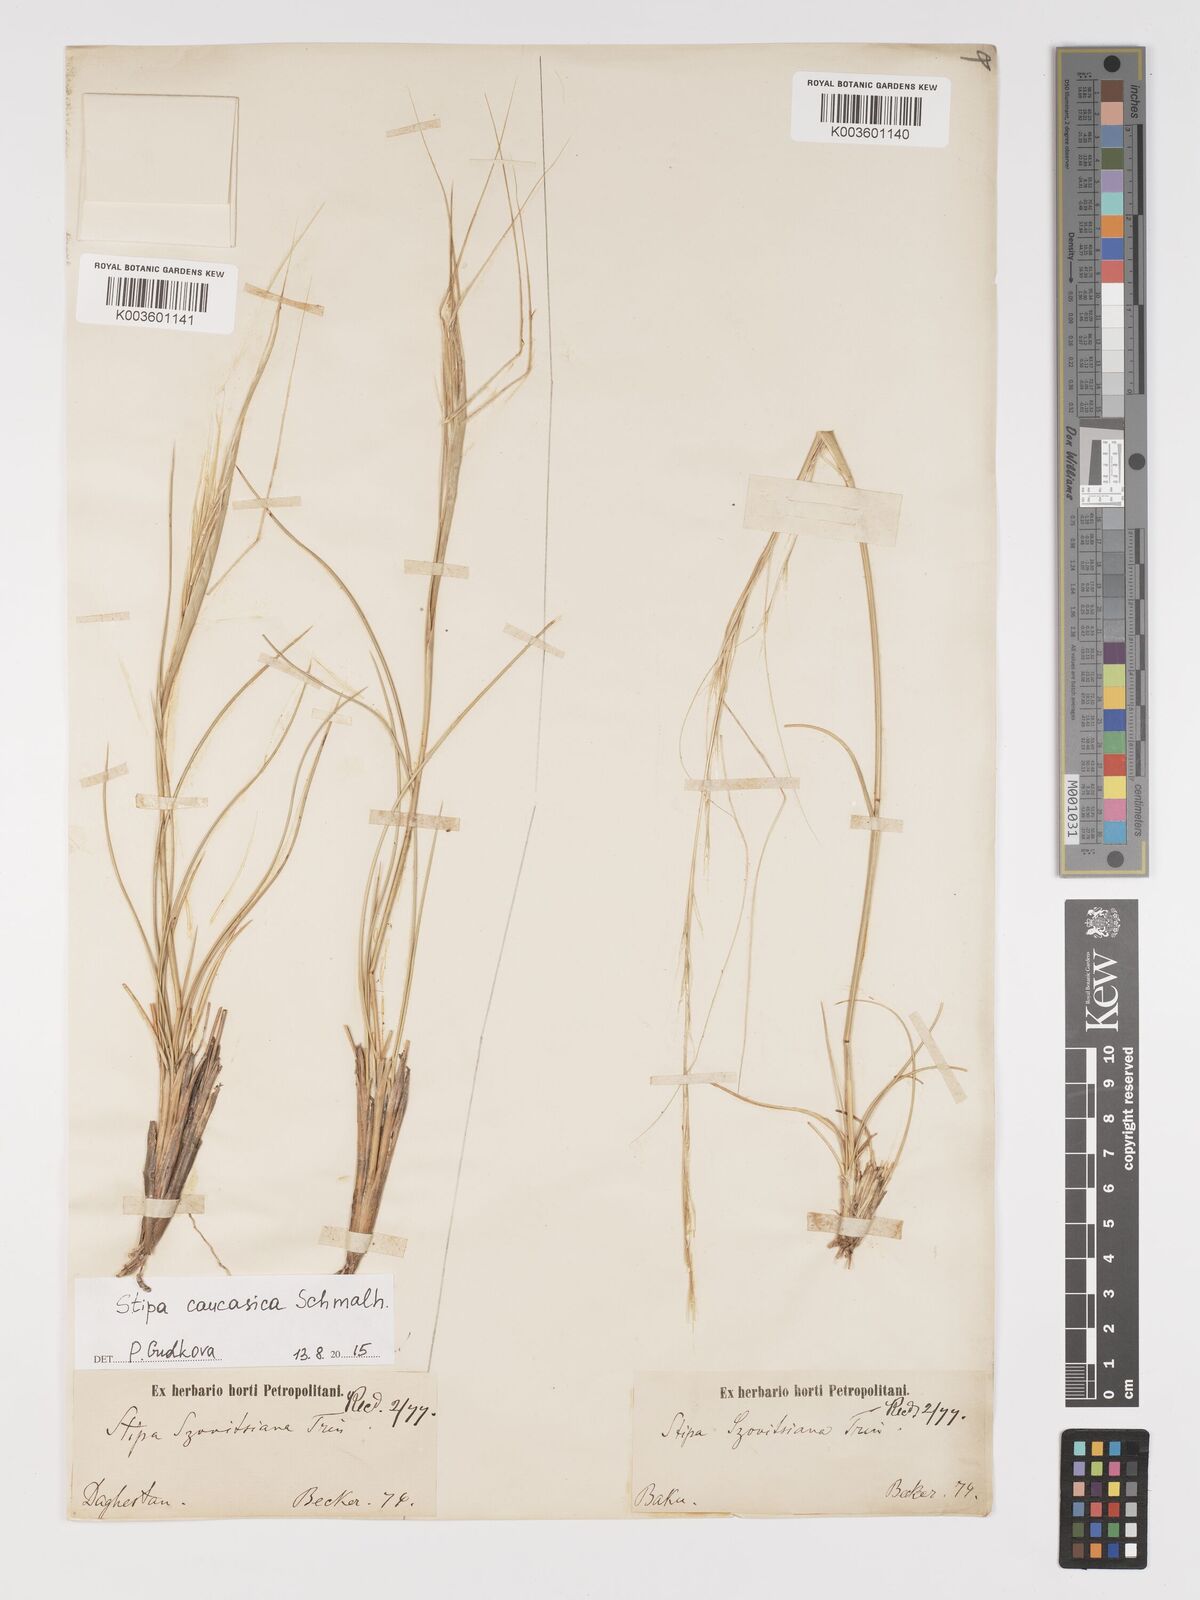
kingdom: Plantae
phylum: Tracheophyta
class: Liliopsida
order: Poales
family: Poaceae
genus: Stipa
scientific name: Stipa arabica
